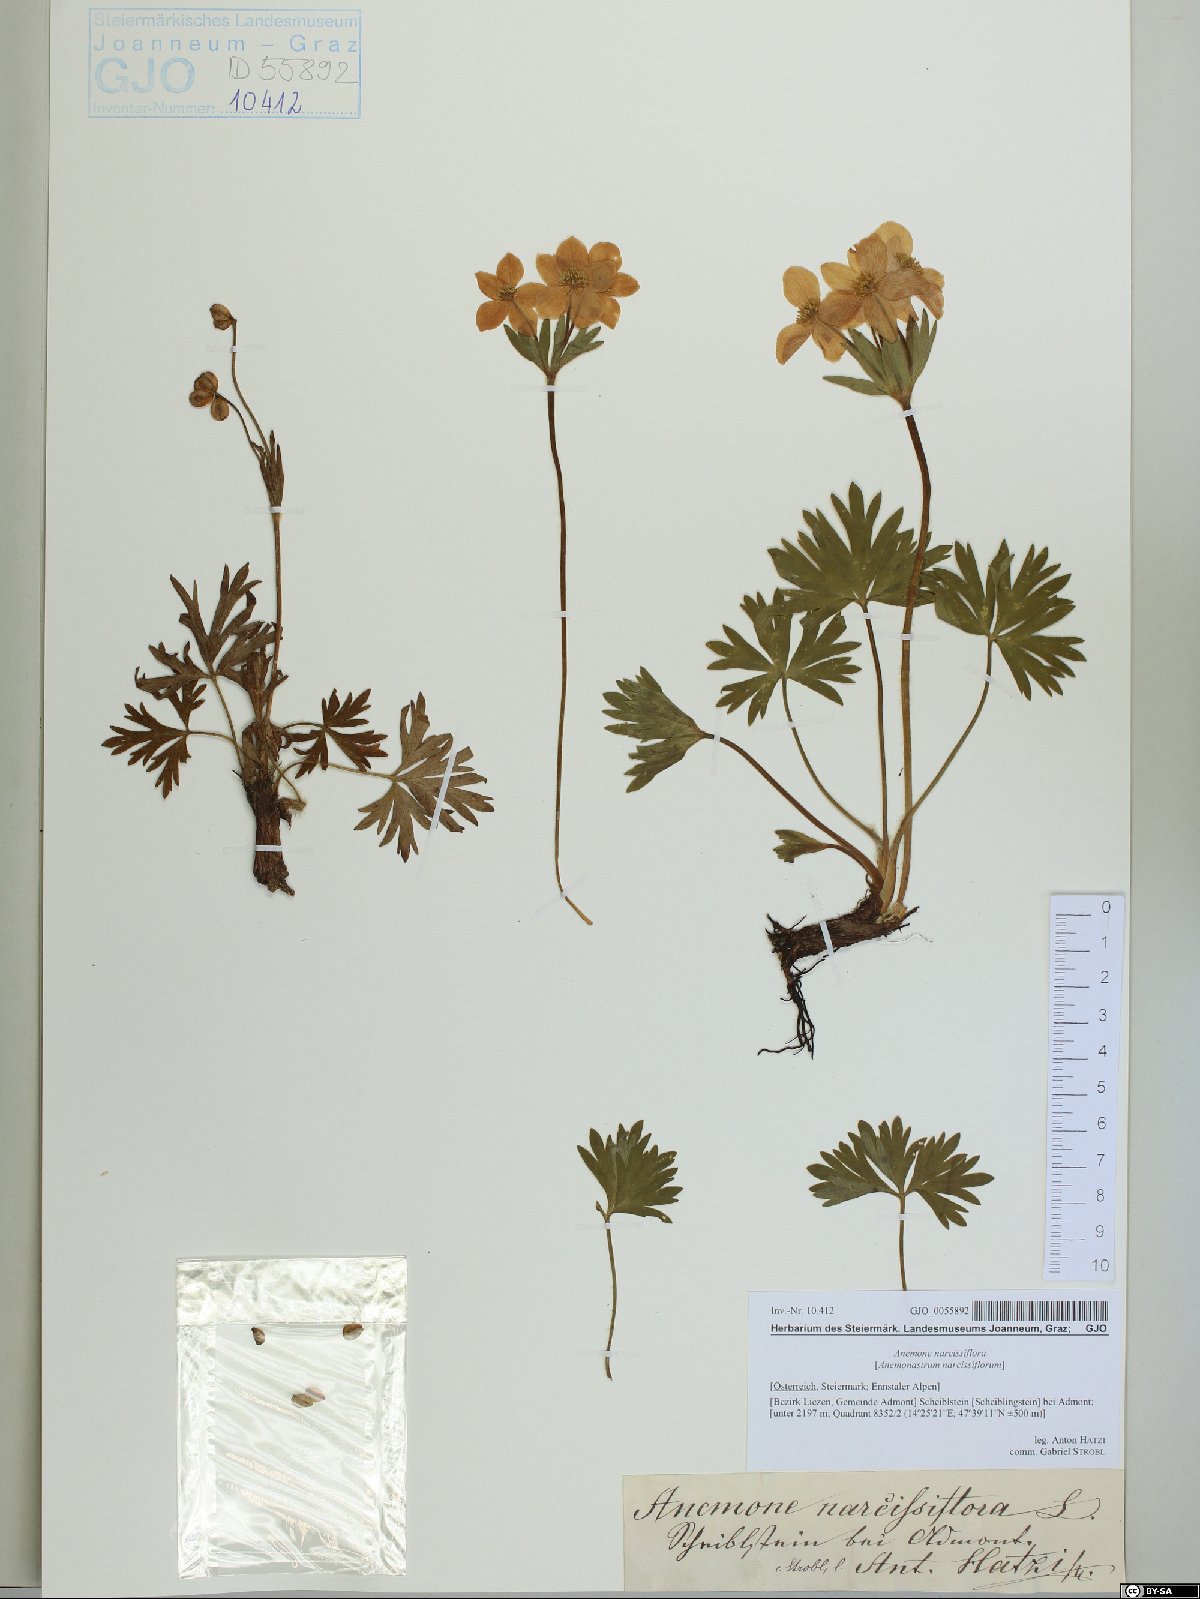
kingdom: Plantae
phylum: Tracheophyta
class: Magnoliopsida
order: Ranunculales
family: Ranunculaceae
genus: Anemonastrum
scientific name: Anemonastrum narcissiflorum
